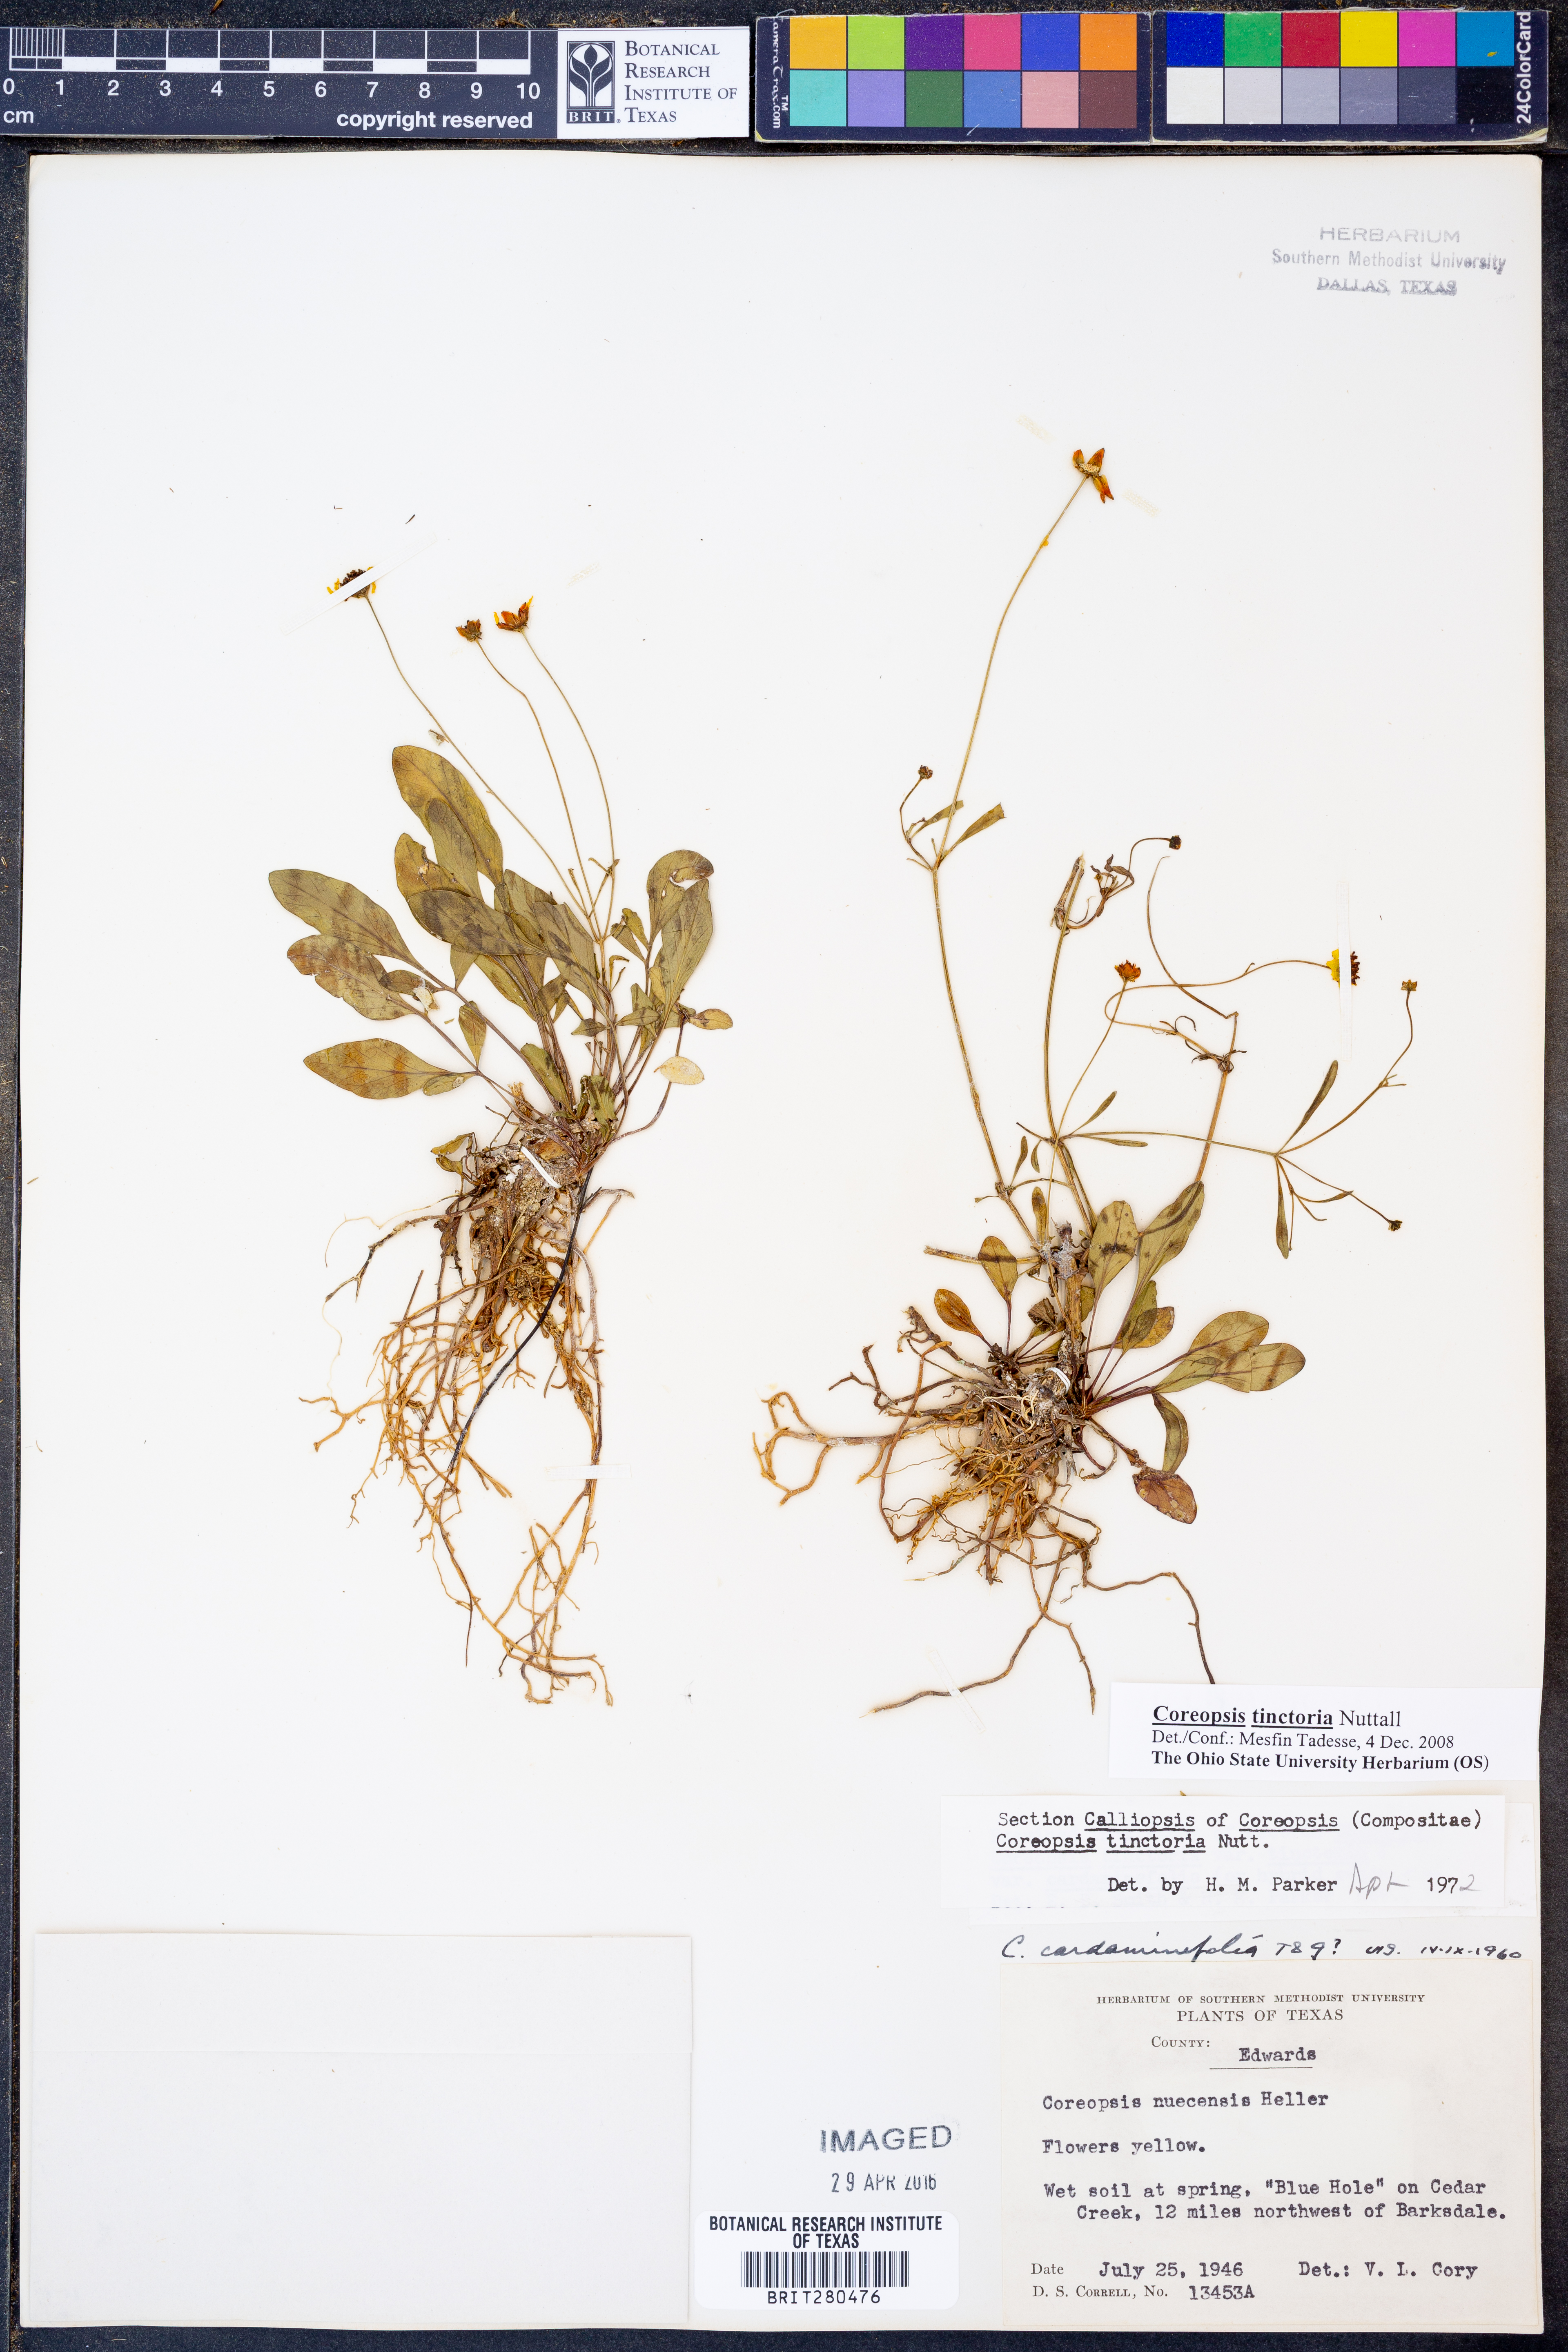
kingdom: Plantae
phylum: Tracheophyta
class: Magnoliopsida
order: Asterales
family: Asteraceae
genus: Coreopsis
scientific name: Coreopsis tinctoria
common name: Garden tickseed
